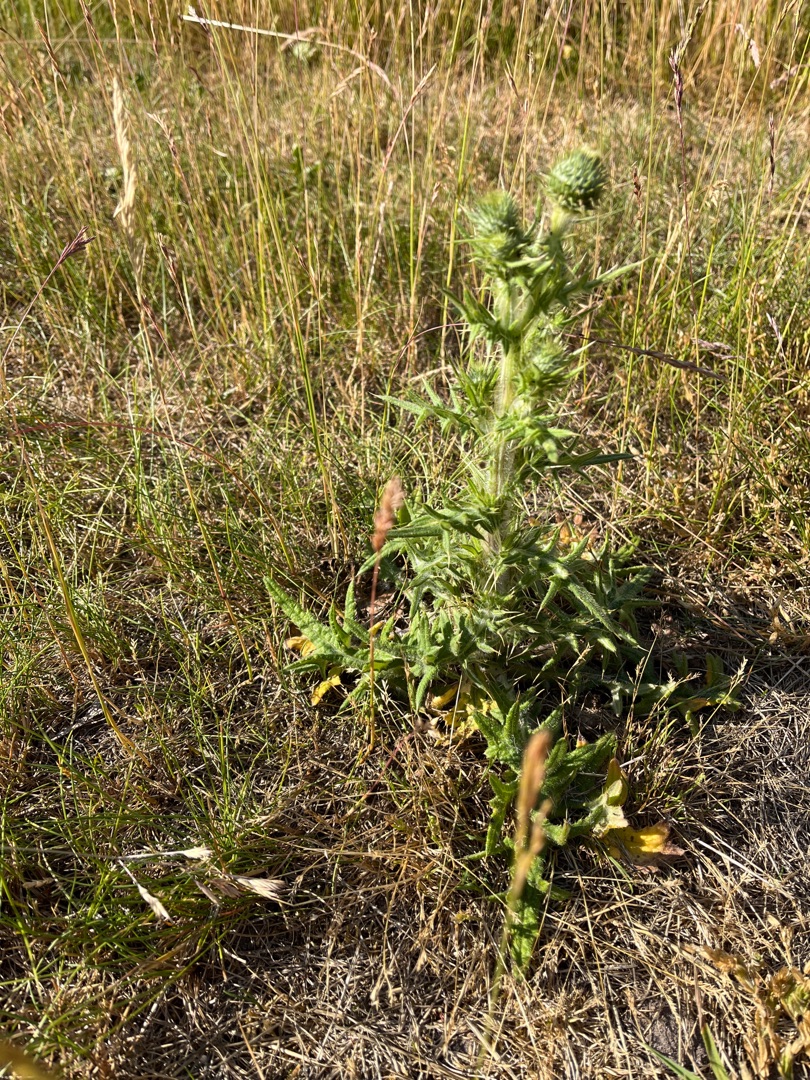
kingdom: Plantae
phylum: Tracheophyta
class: Magnoliopsida
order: Asterales
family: Asteraceae
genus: Cirsium
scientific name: Cirsium vulgare
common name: Horse-tidsel
